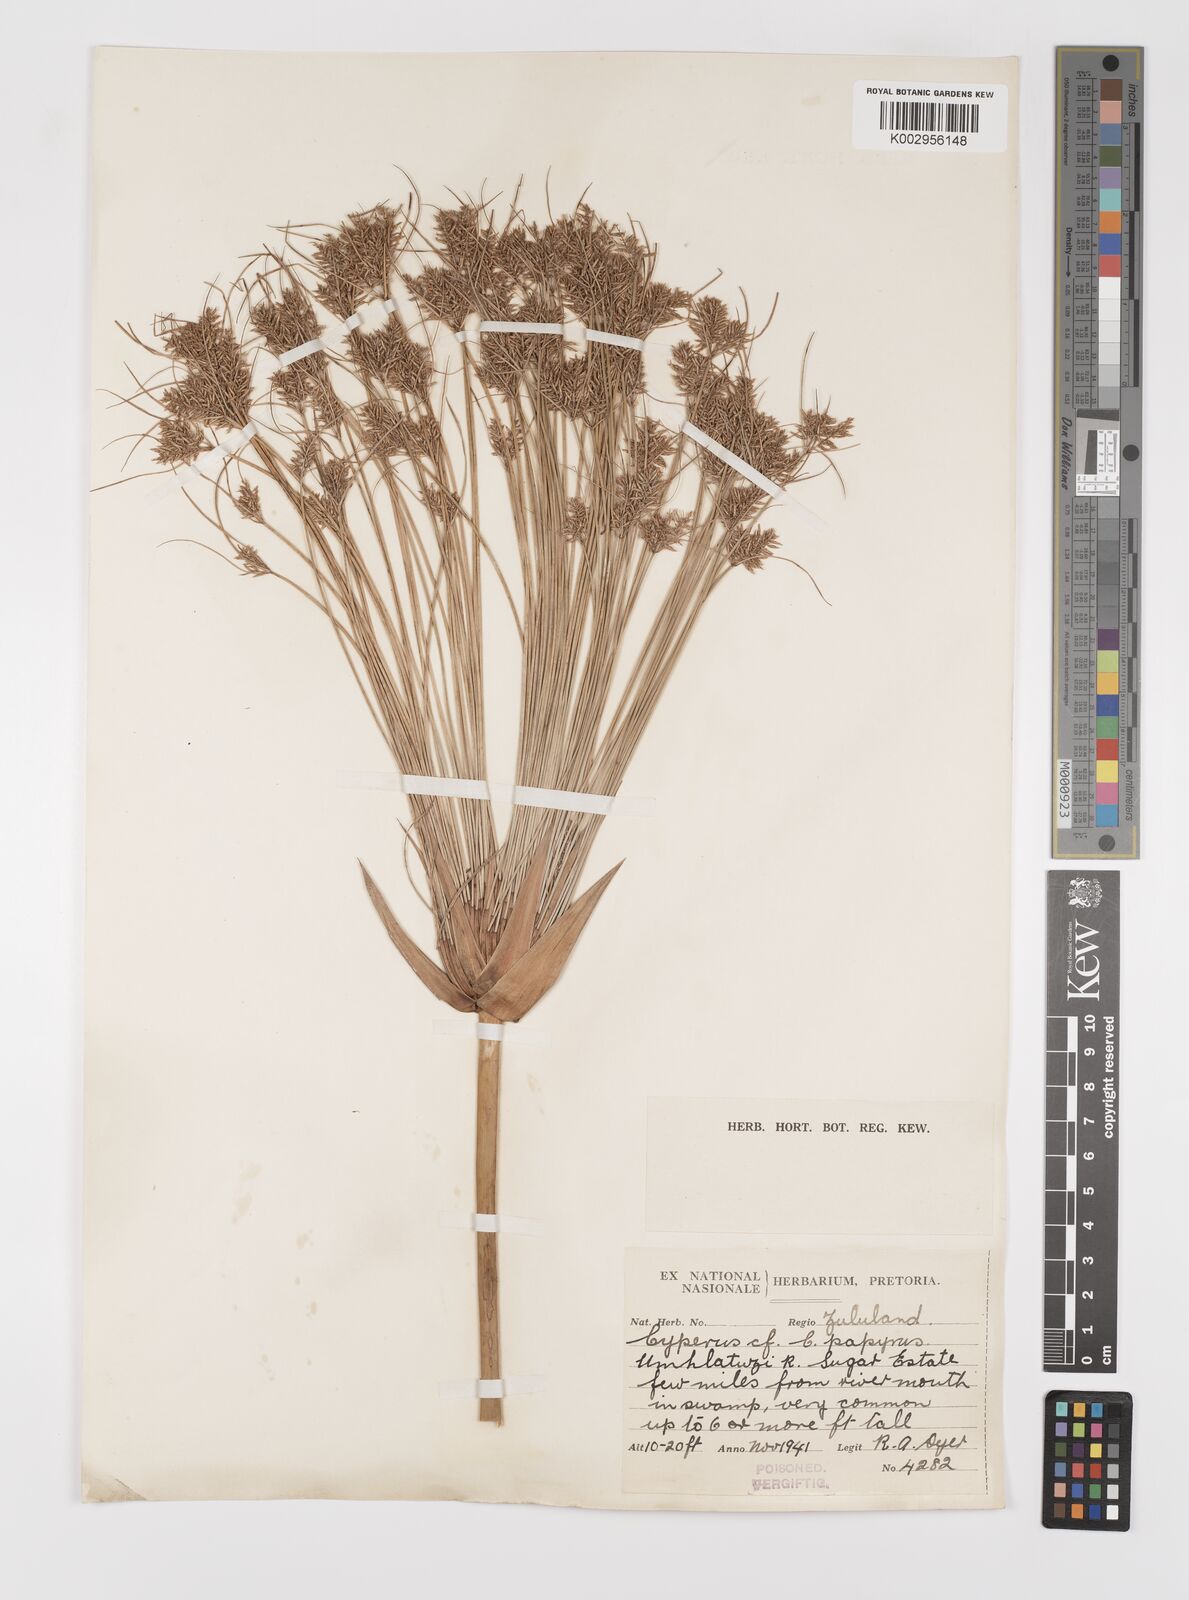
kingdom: Plantae
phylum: Tracheophyta
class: Liliopsida
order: Poales
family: Cyperaceae
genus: Cyperus
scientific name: Cyperus papyrus
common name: Papyrus
